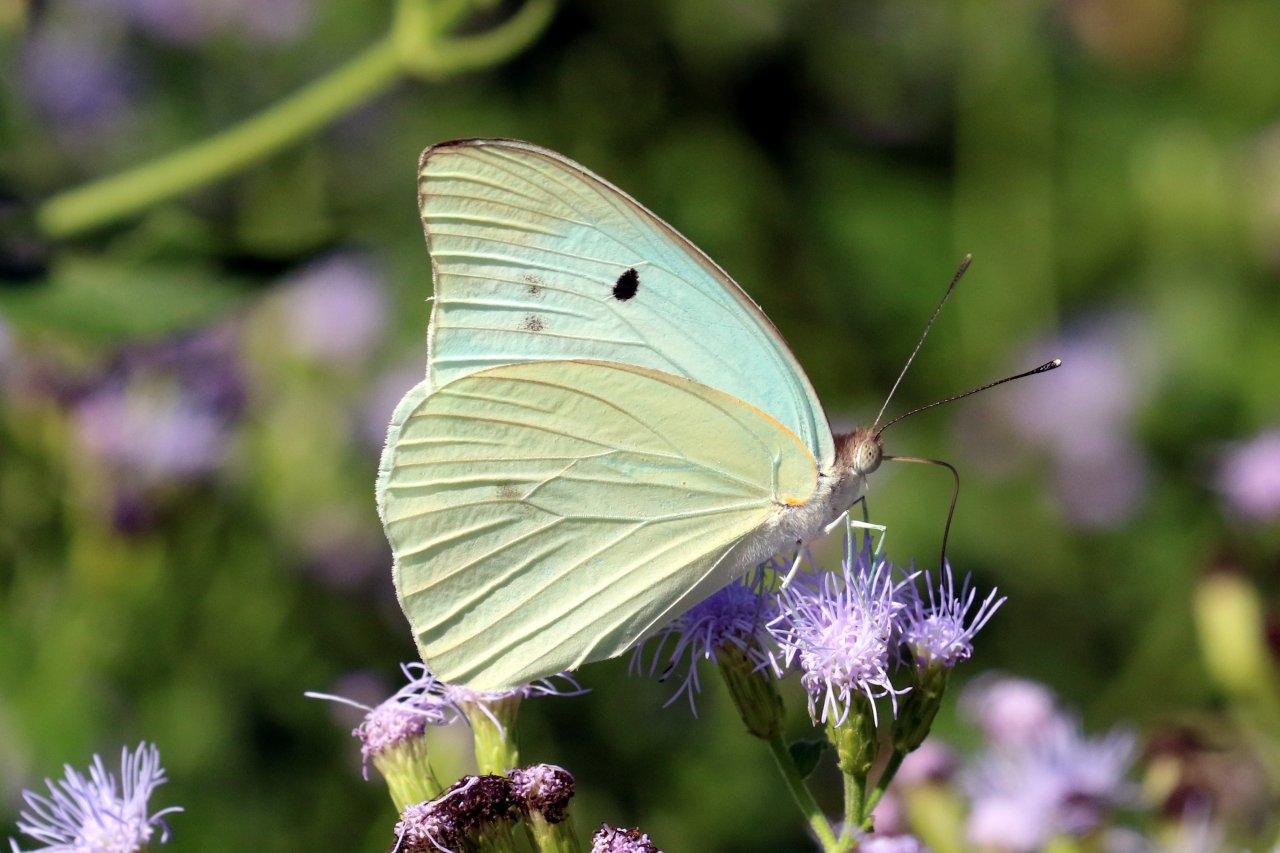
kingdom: Animalia
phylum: Arthropoda
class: Insecta
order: Lepidoptera
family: Pieridae
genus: Ganyra
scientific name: Ganyra josephina
